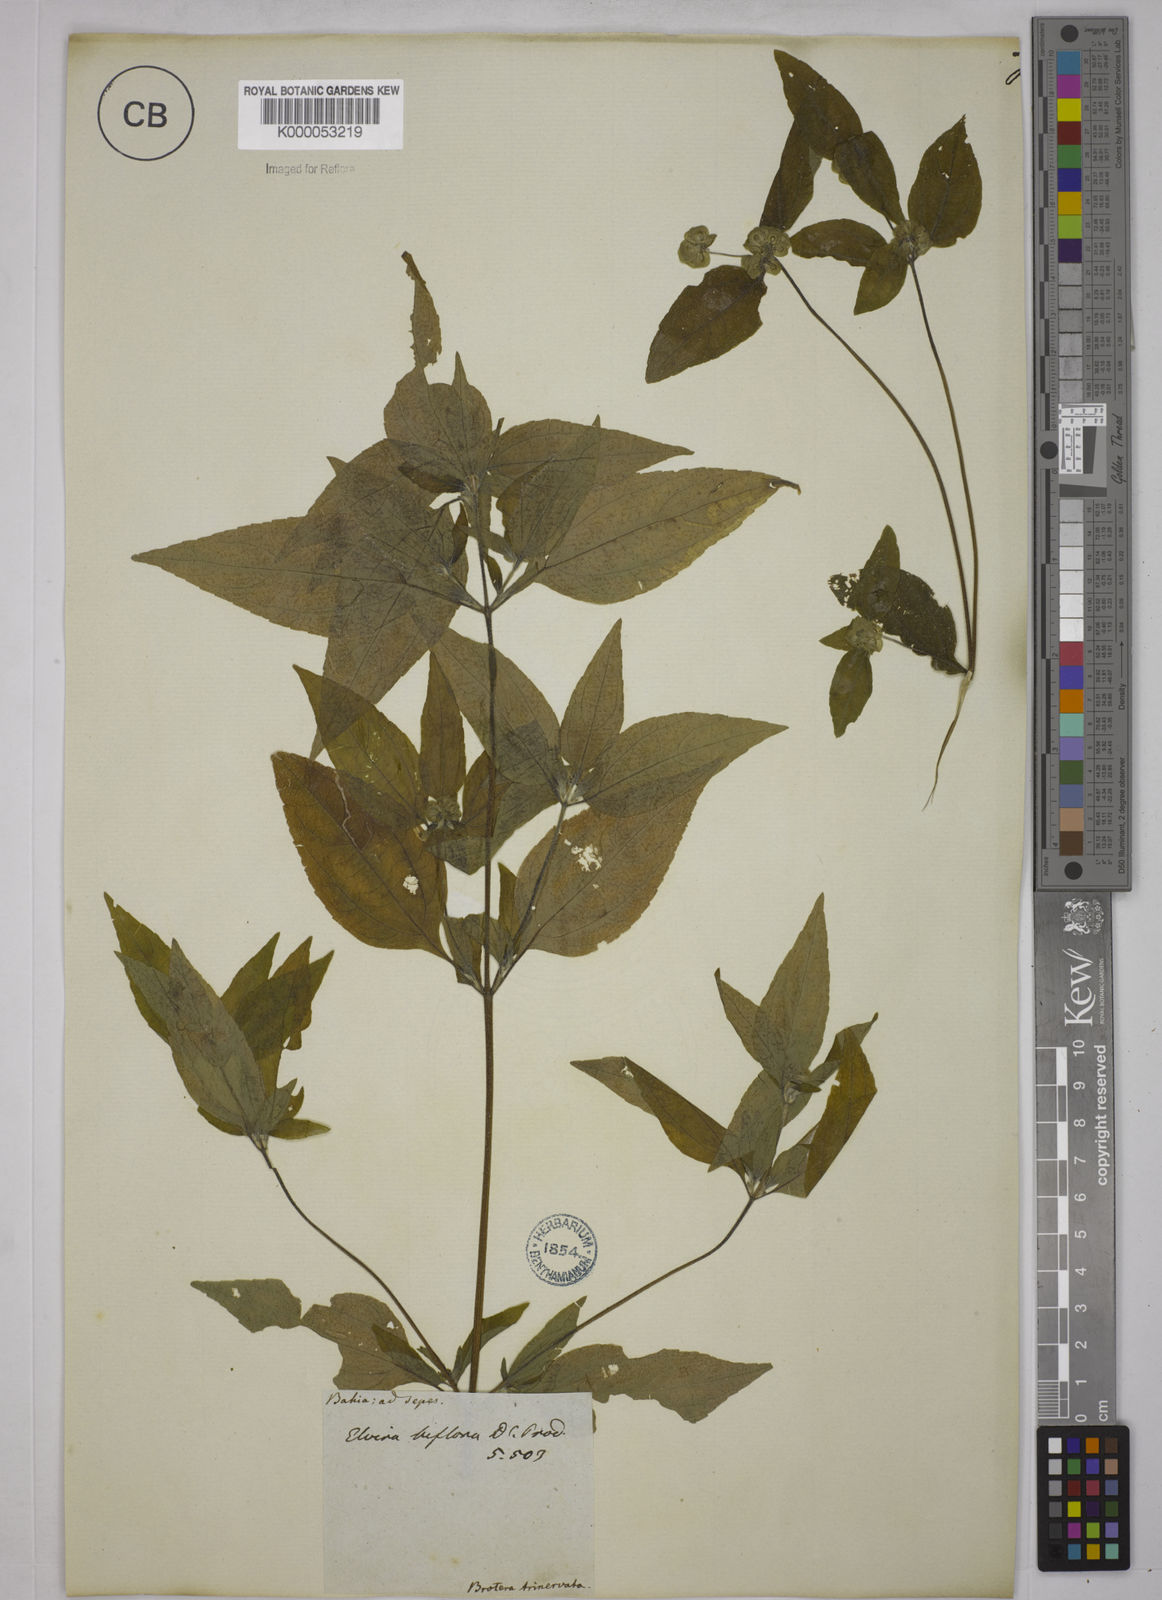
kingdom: Plantae
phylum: Tracheophyta
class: Magnoliopsida
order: Asterales
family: Asteraceae
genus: Delilia
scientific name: Delilia biflora
